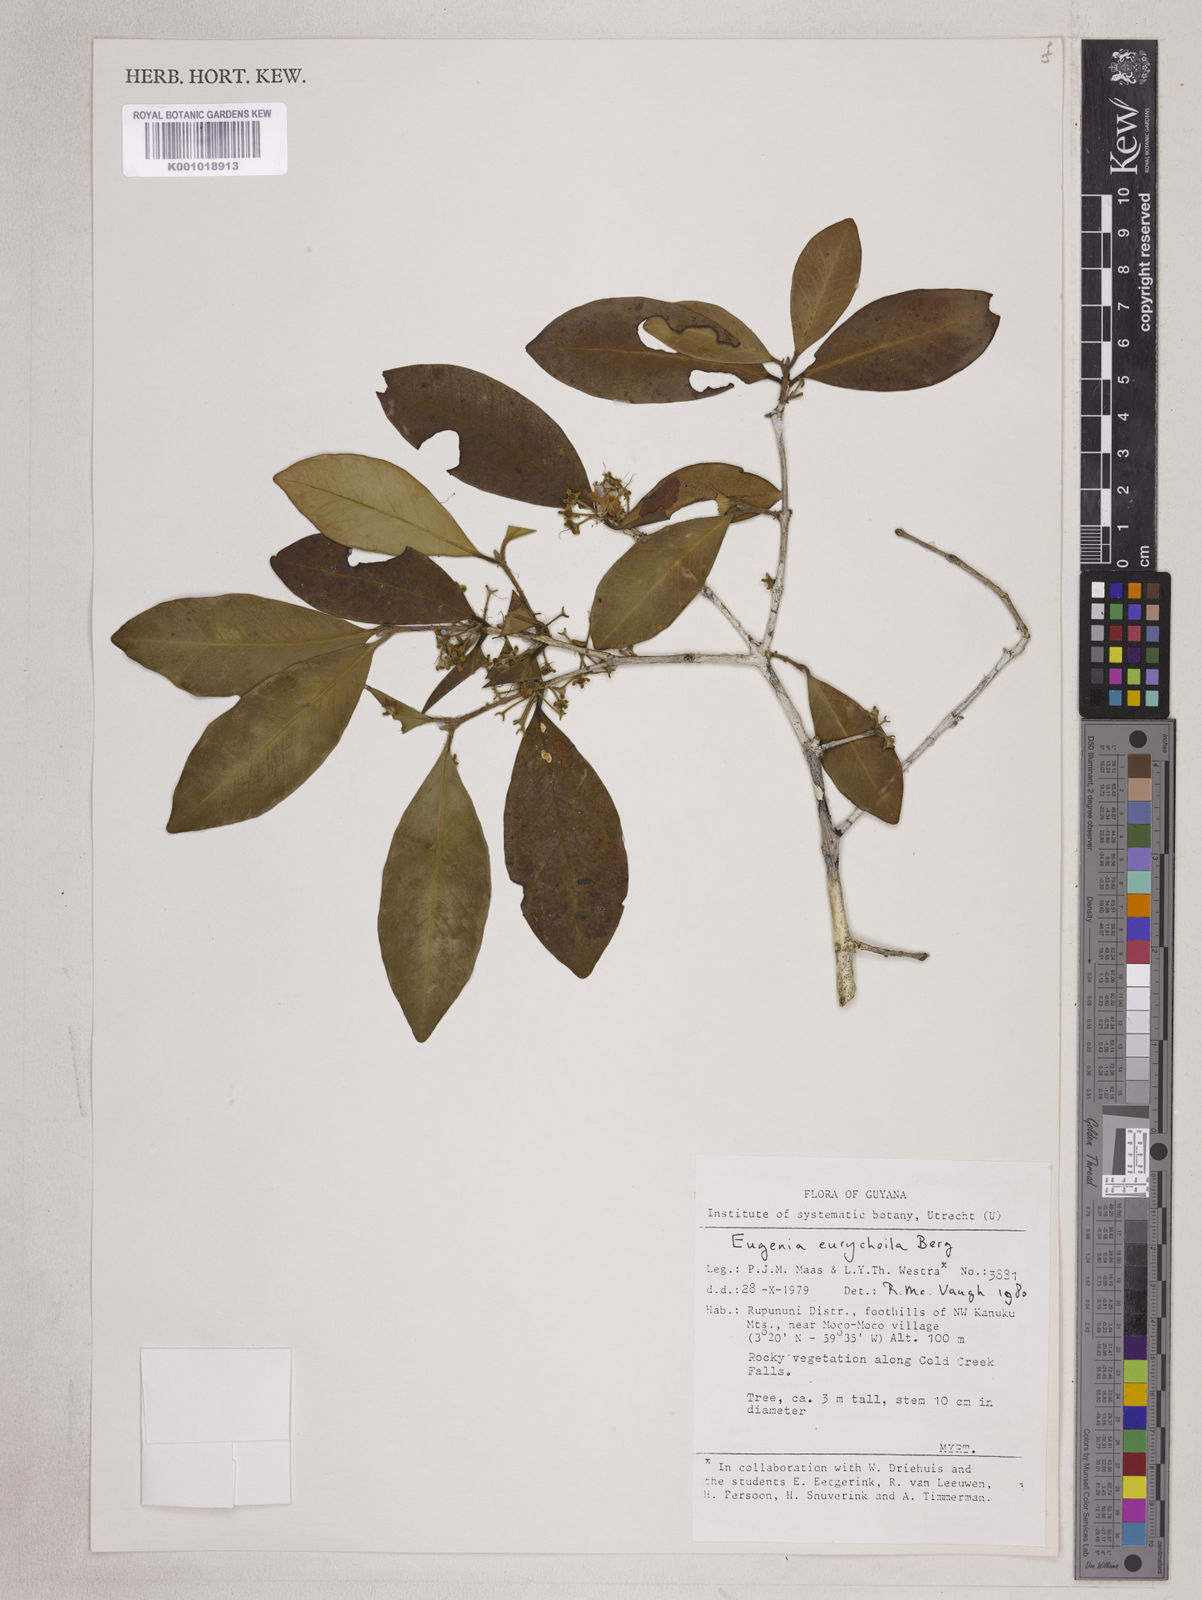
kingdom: Plantae
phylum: Tracheophyta
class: Magnoliopsida
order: Myrtales
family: Myrtaceae
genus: Eugenia
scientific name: Eugenia eurycheila
